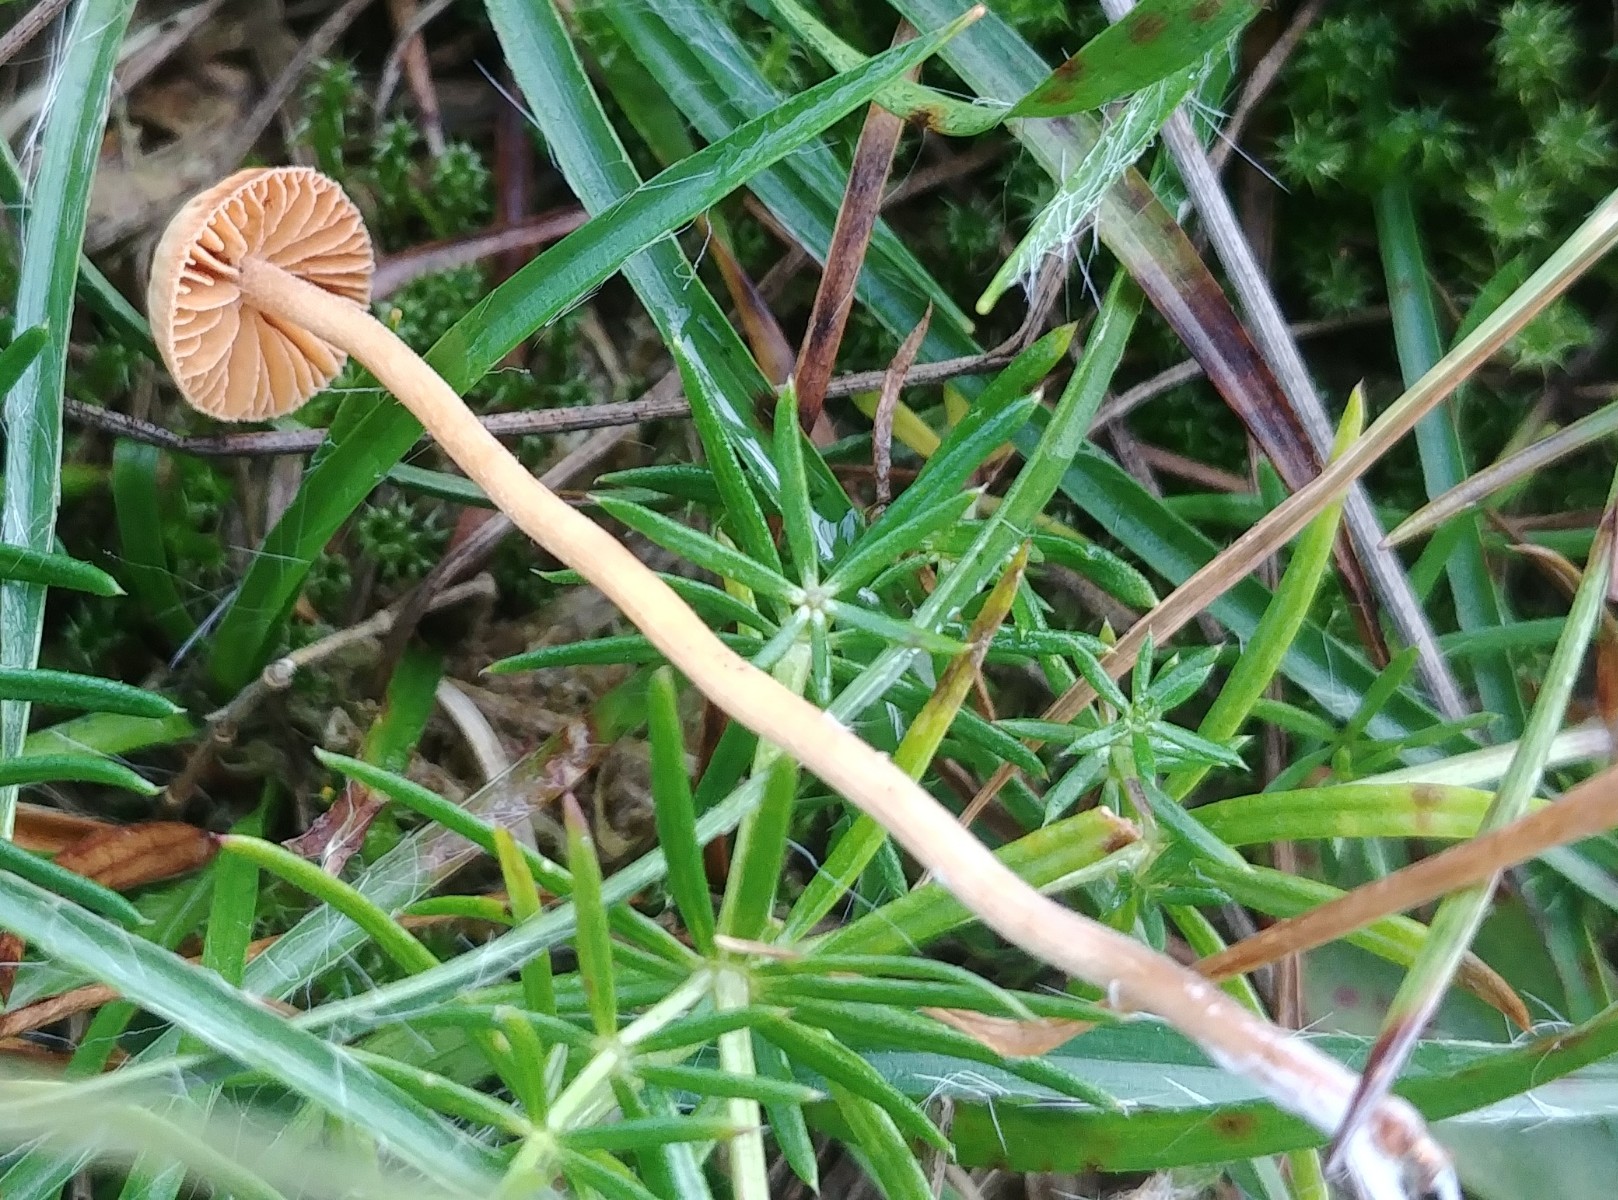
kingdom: Fungi
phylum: Basidiomycota
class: Agaricomycetes
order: Agaricales
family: Hymenogastraceae
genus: Galerina
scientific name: Galerina
